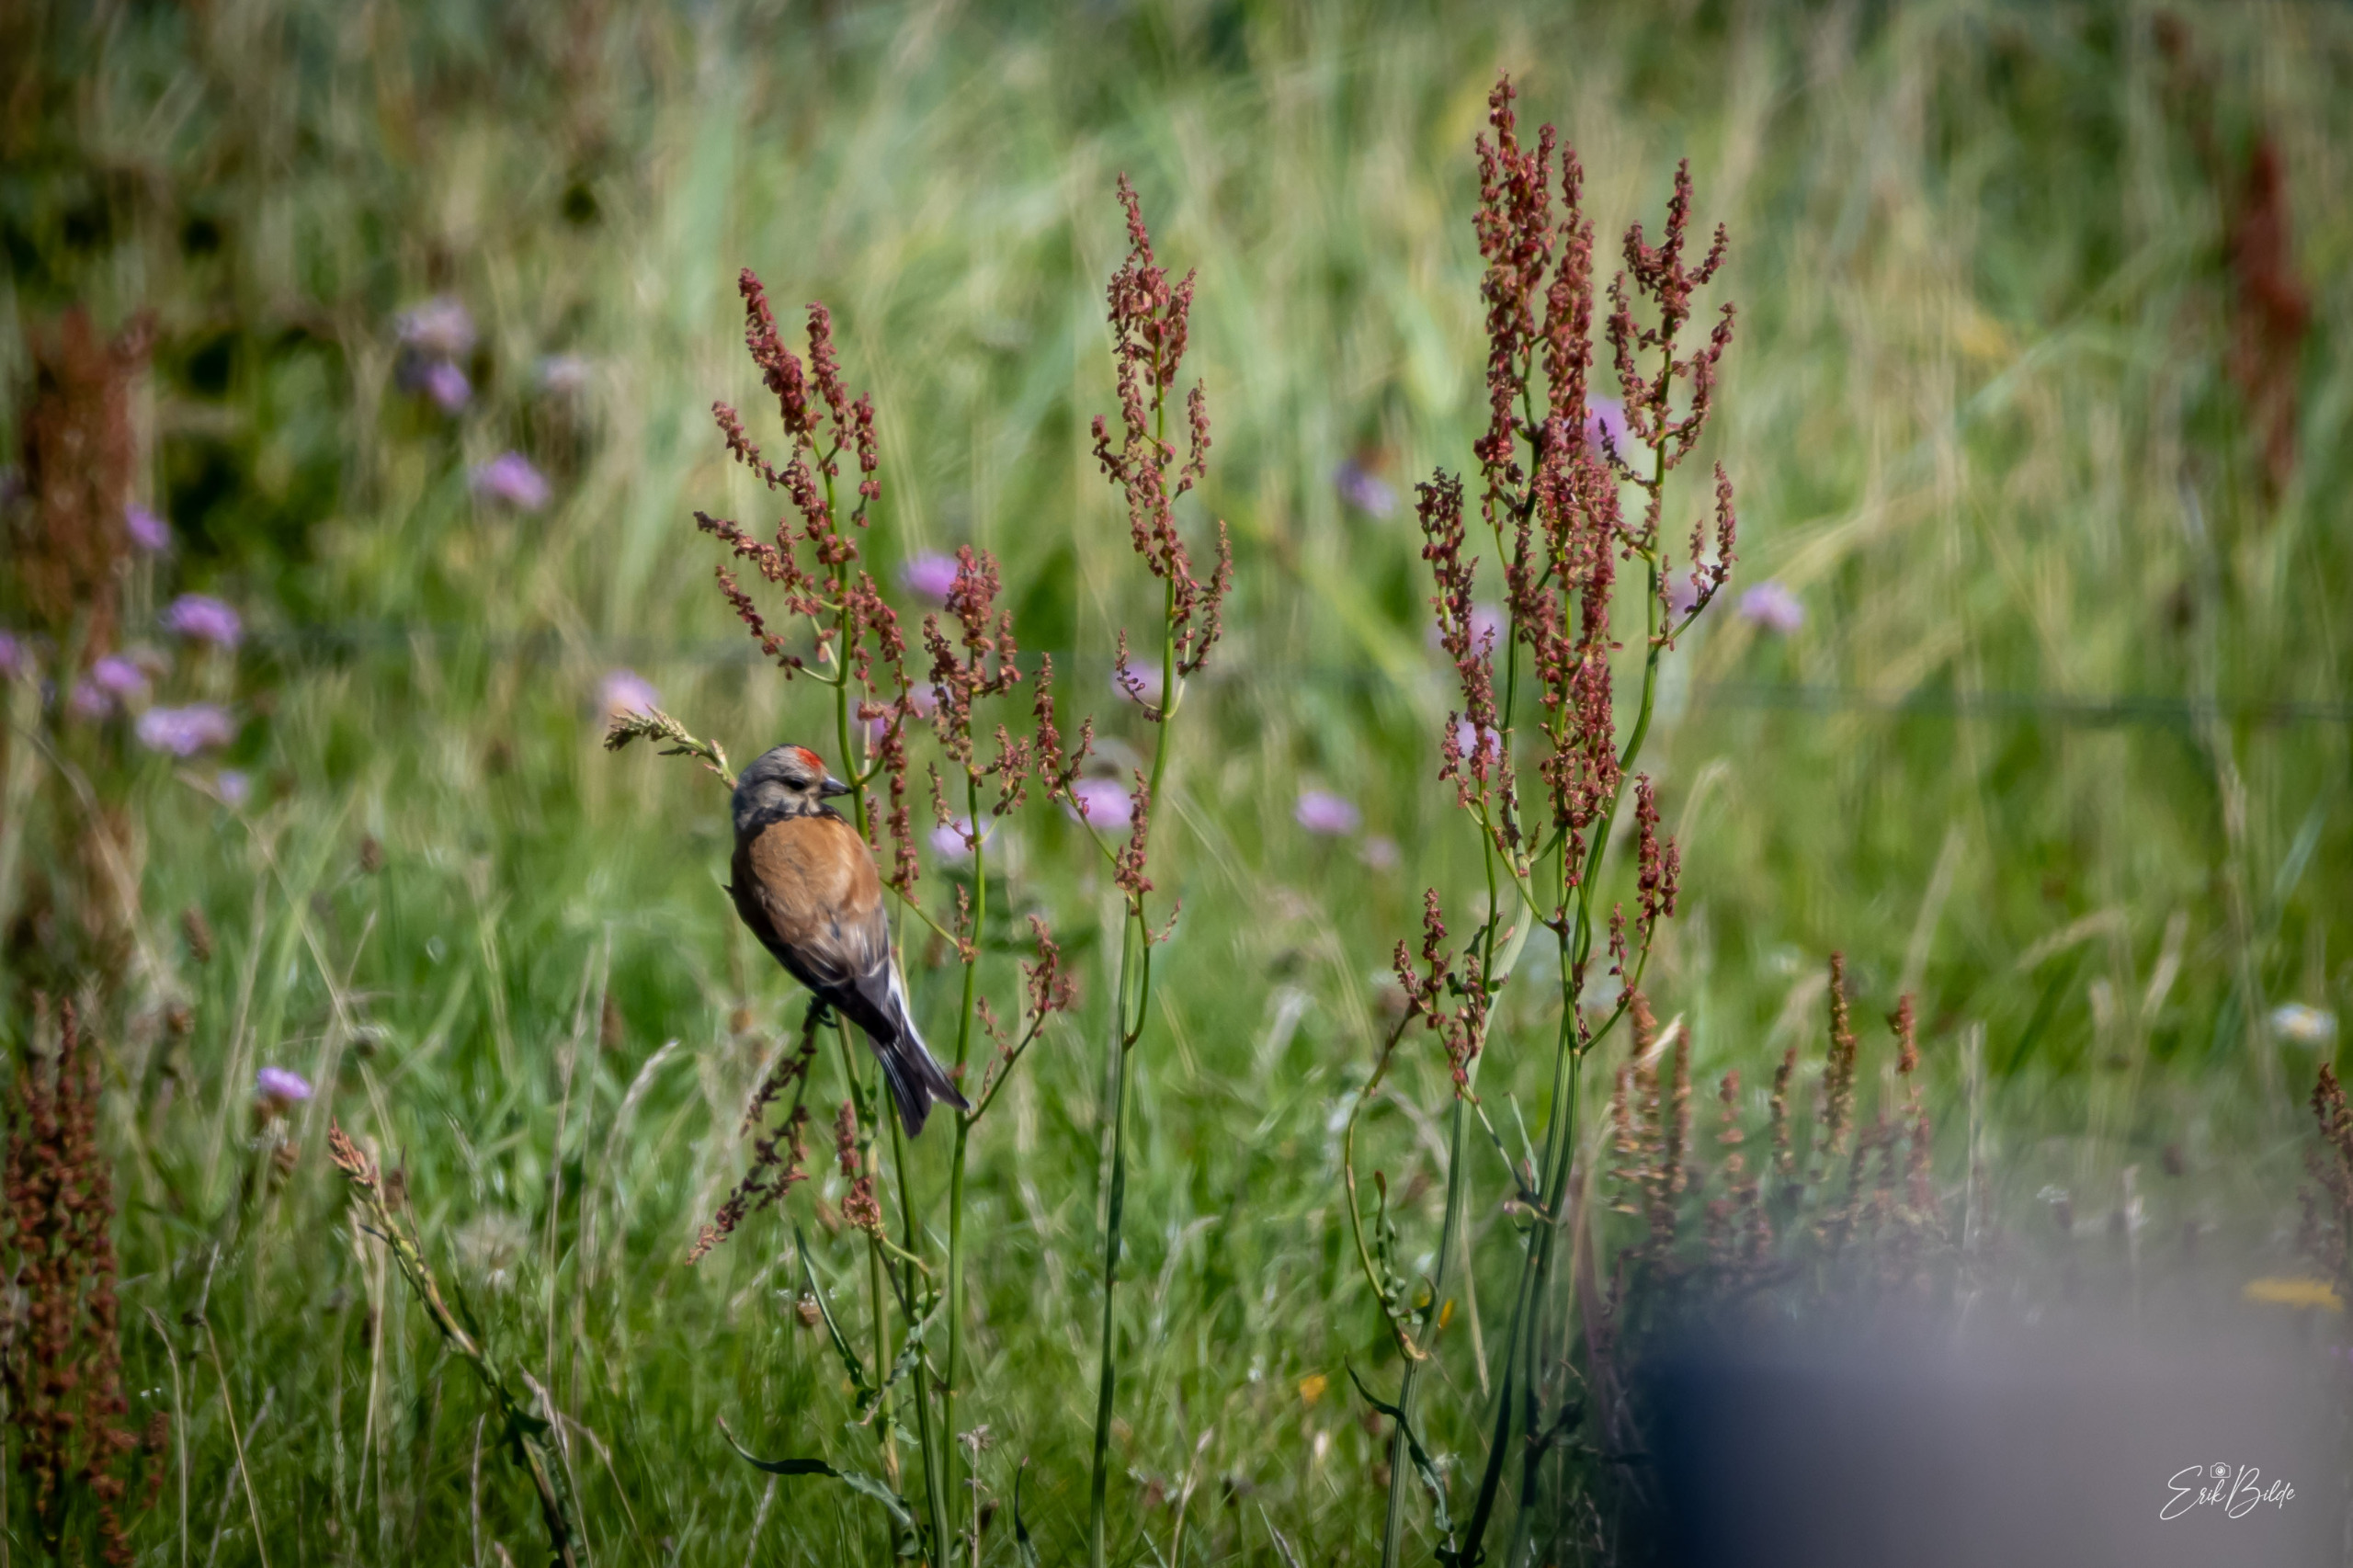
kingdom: Animalia
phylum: Chordata
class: Aves
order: Passeriformes
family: Fringillidae
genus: Linaria
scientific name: Linaria cannabina
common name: Tornirisk
